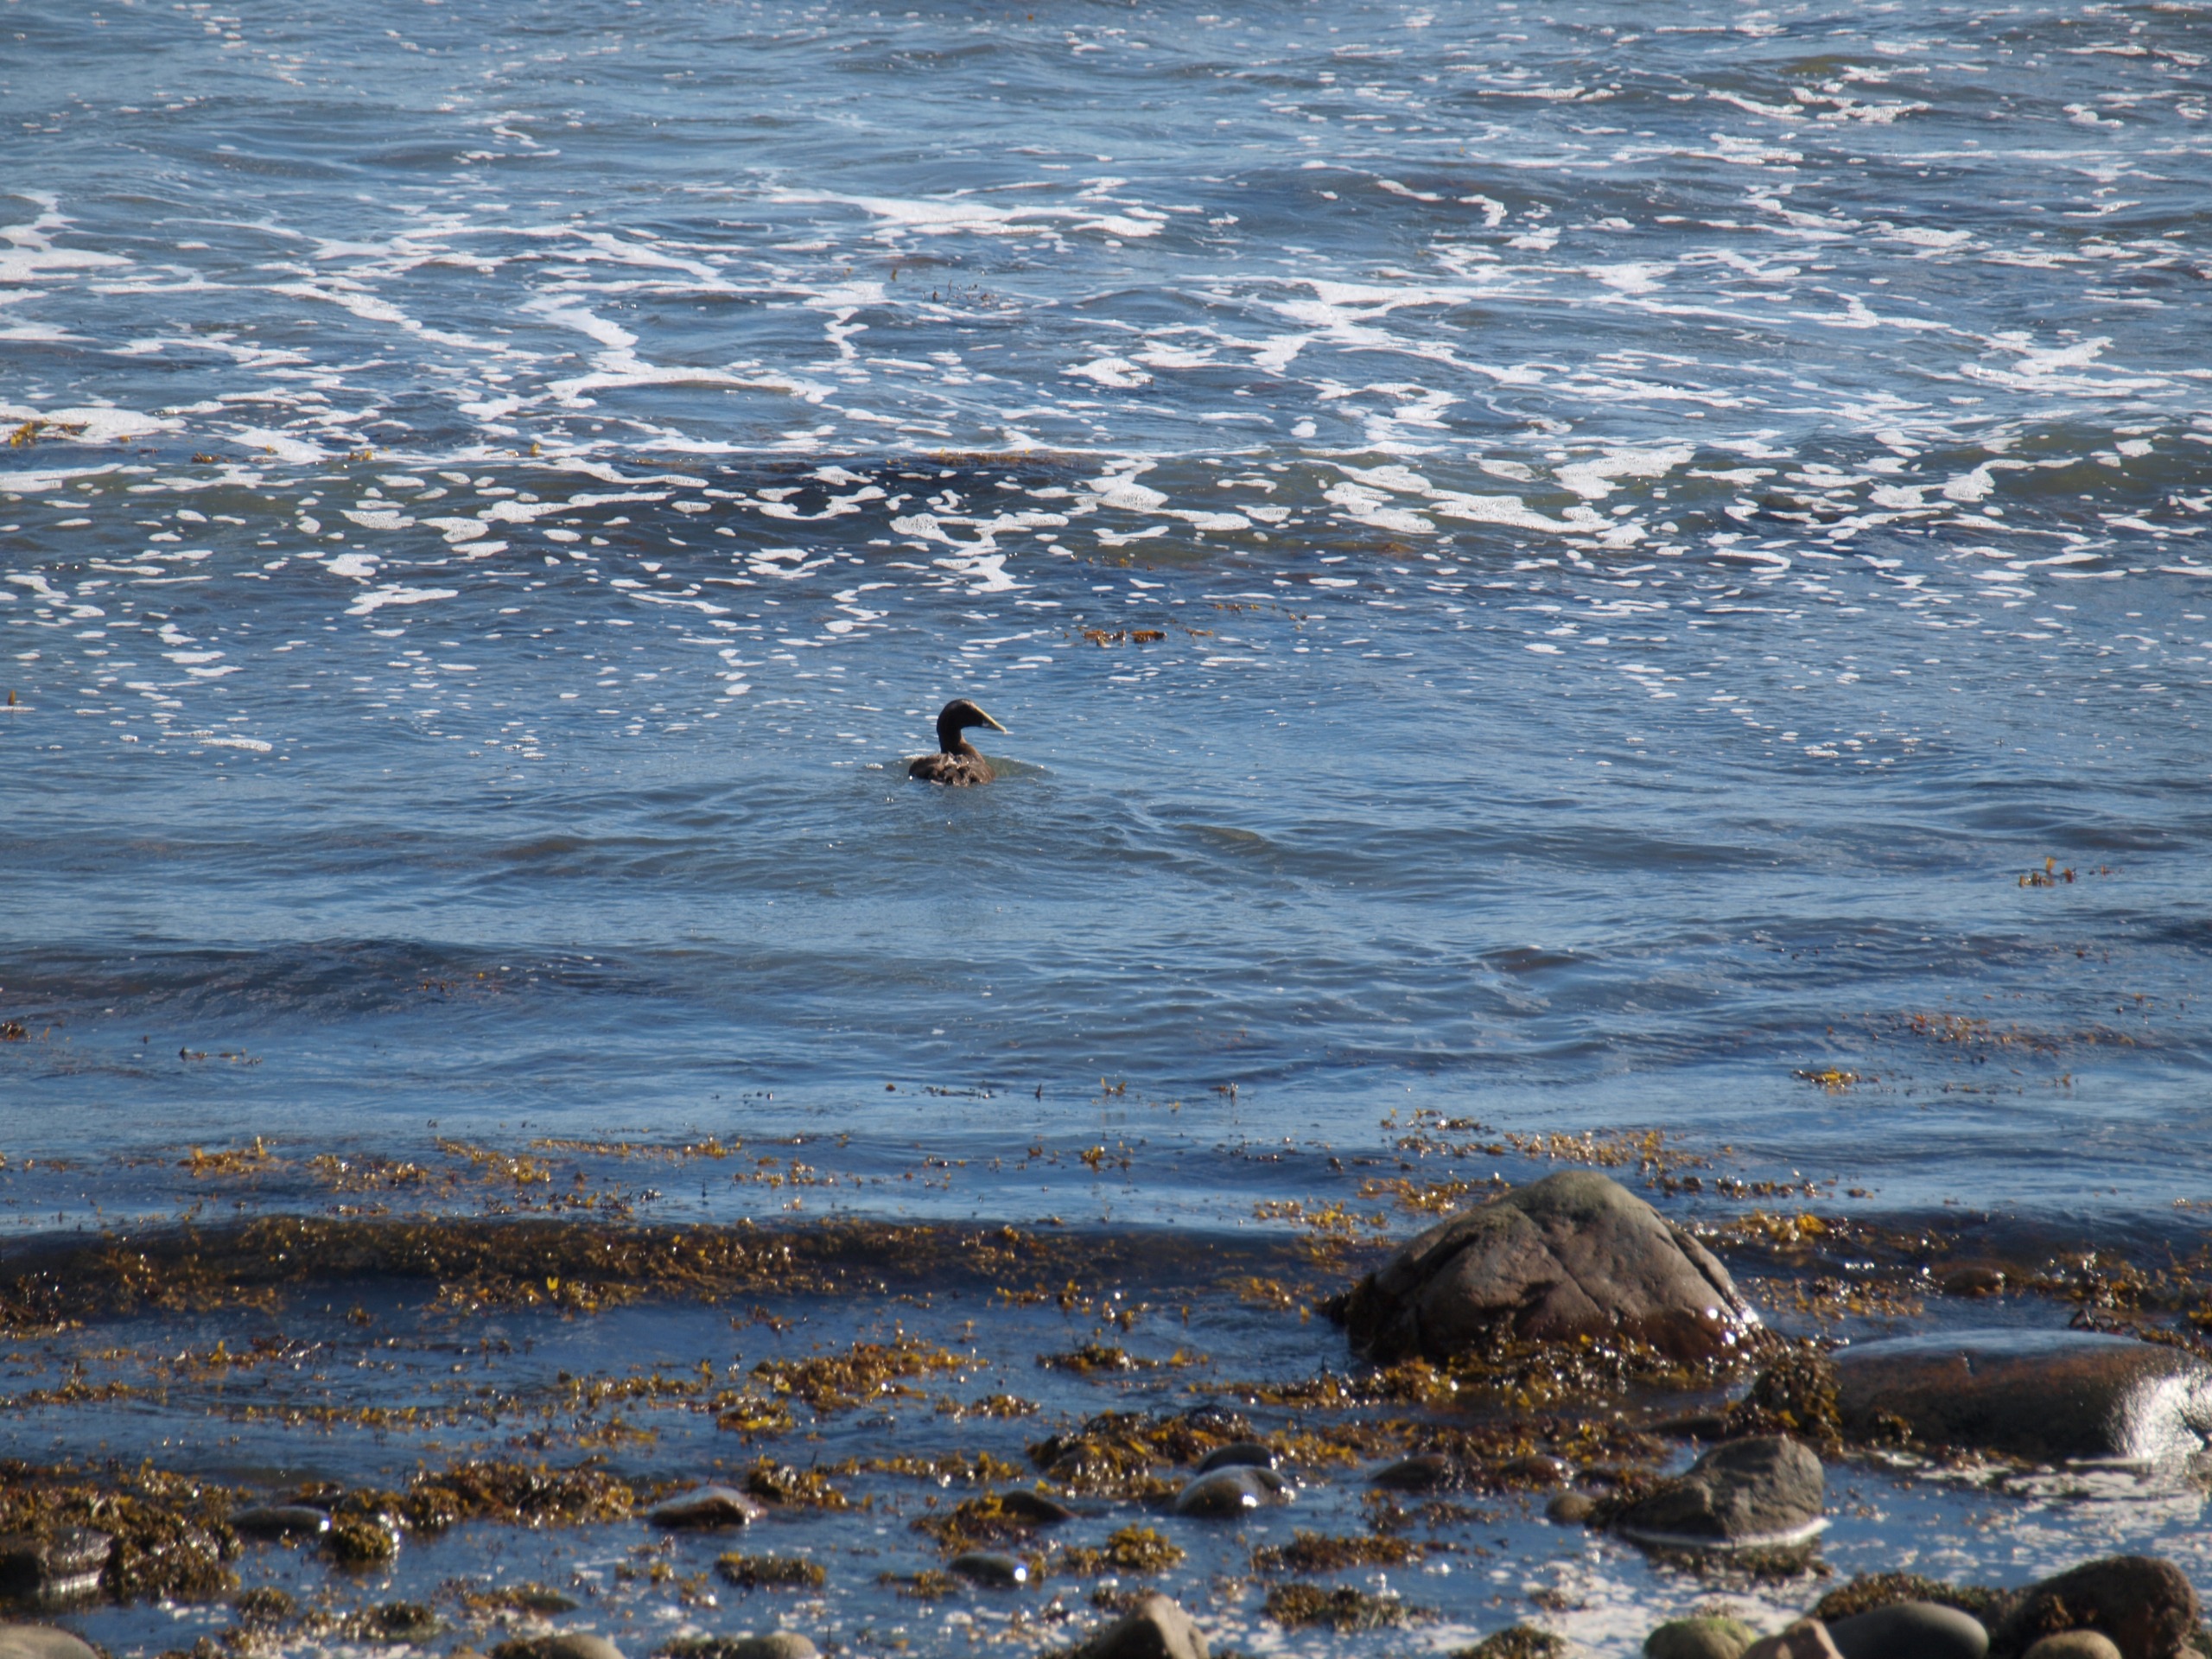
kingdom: Animalia
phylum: Chordata
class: Aves
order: Anseriformes
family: Anatidae
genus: Somateria
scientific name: Somateria mollissima
